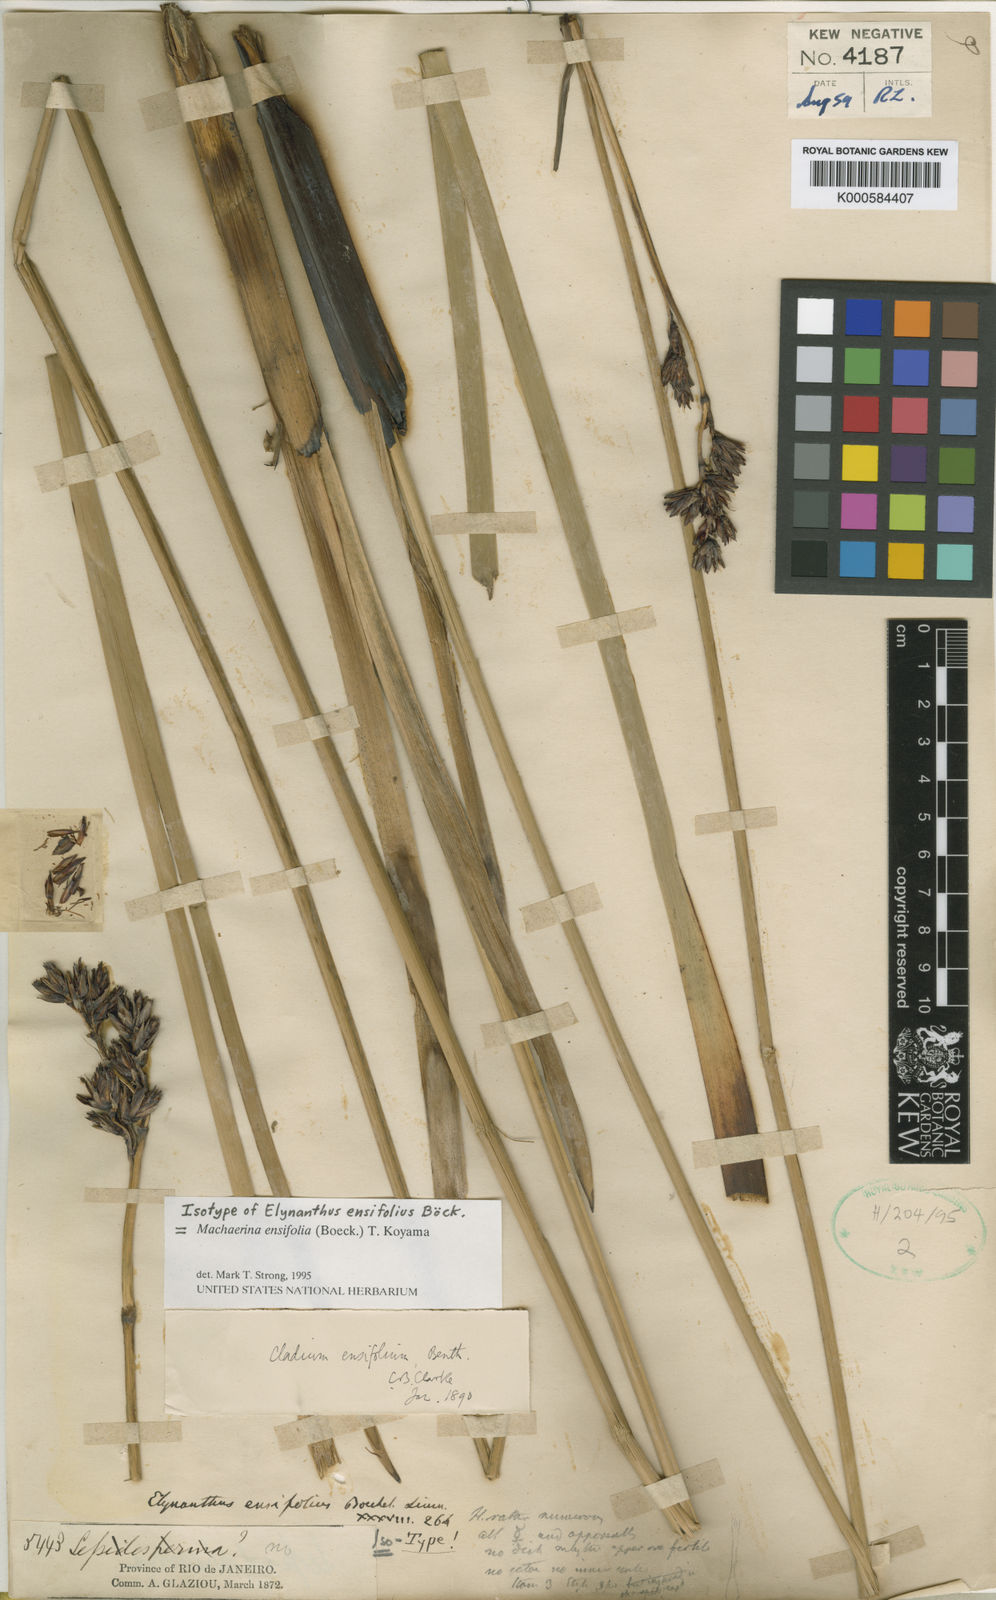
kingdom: Plantae
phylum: Tracheophyta
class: Liliopsida
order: Poales
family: Cyperaceae
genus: Machaerina
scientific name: Machaerina ensifolia
